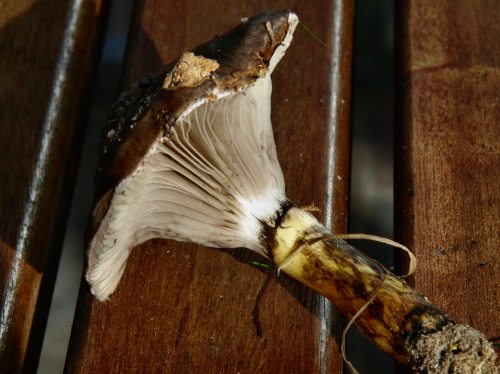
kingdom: Fungi
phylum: Basidiomycota
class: Agaricomycetes
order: Boletales
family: Gomphidiaceae
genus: Gomphidius
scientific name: Gomphidius glutinosus
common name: grå slimslør
